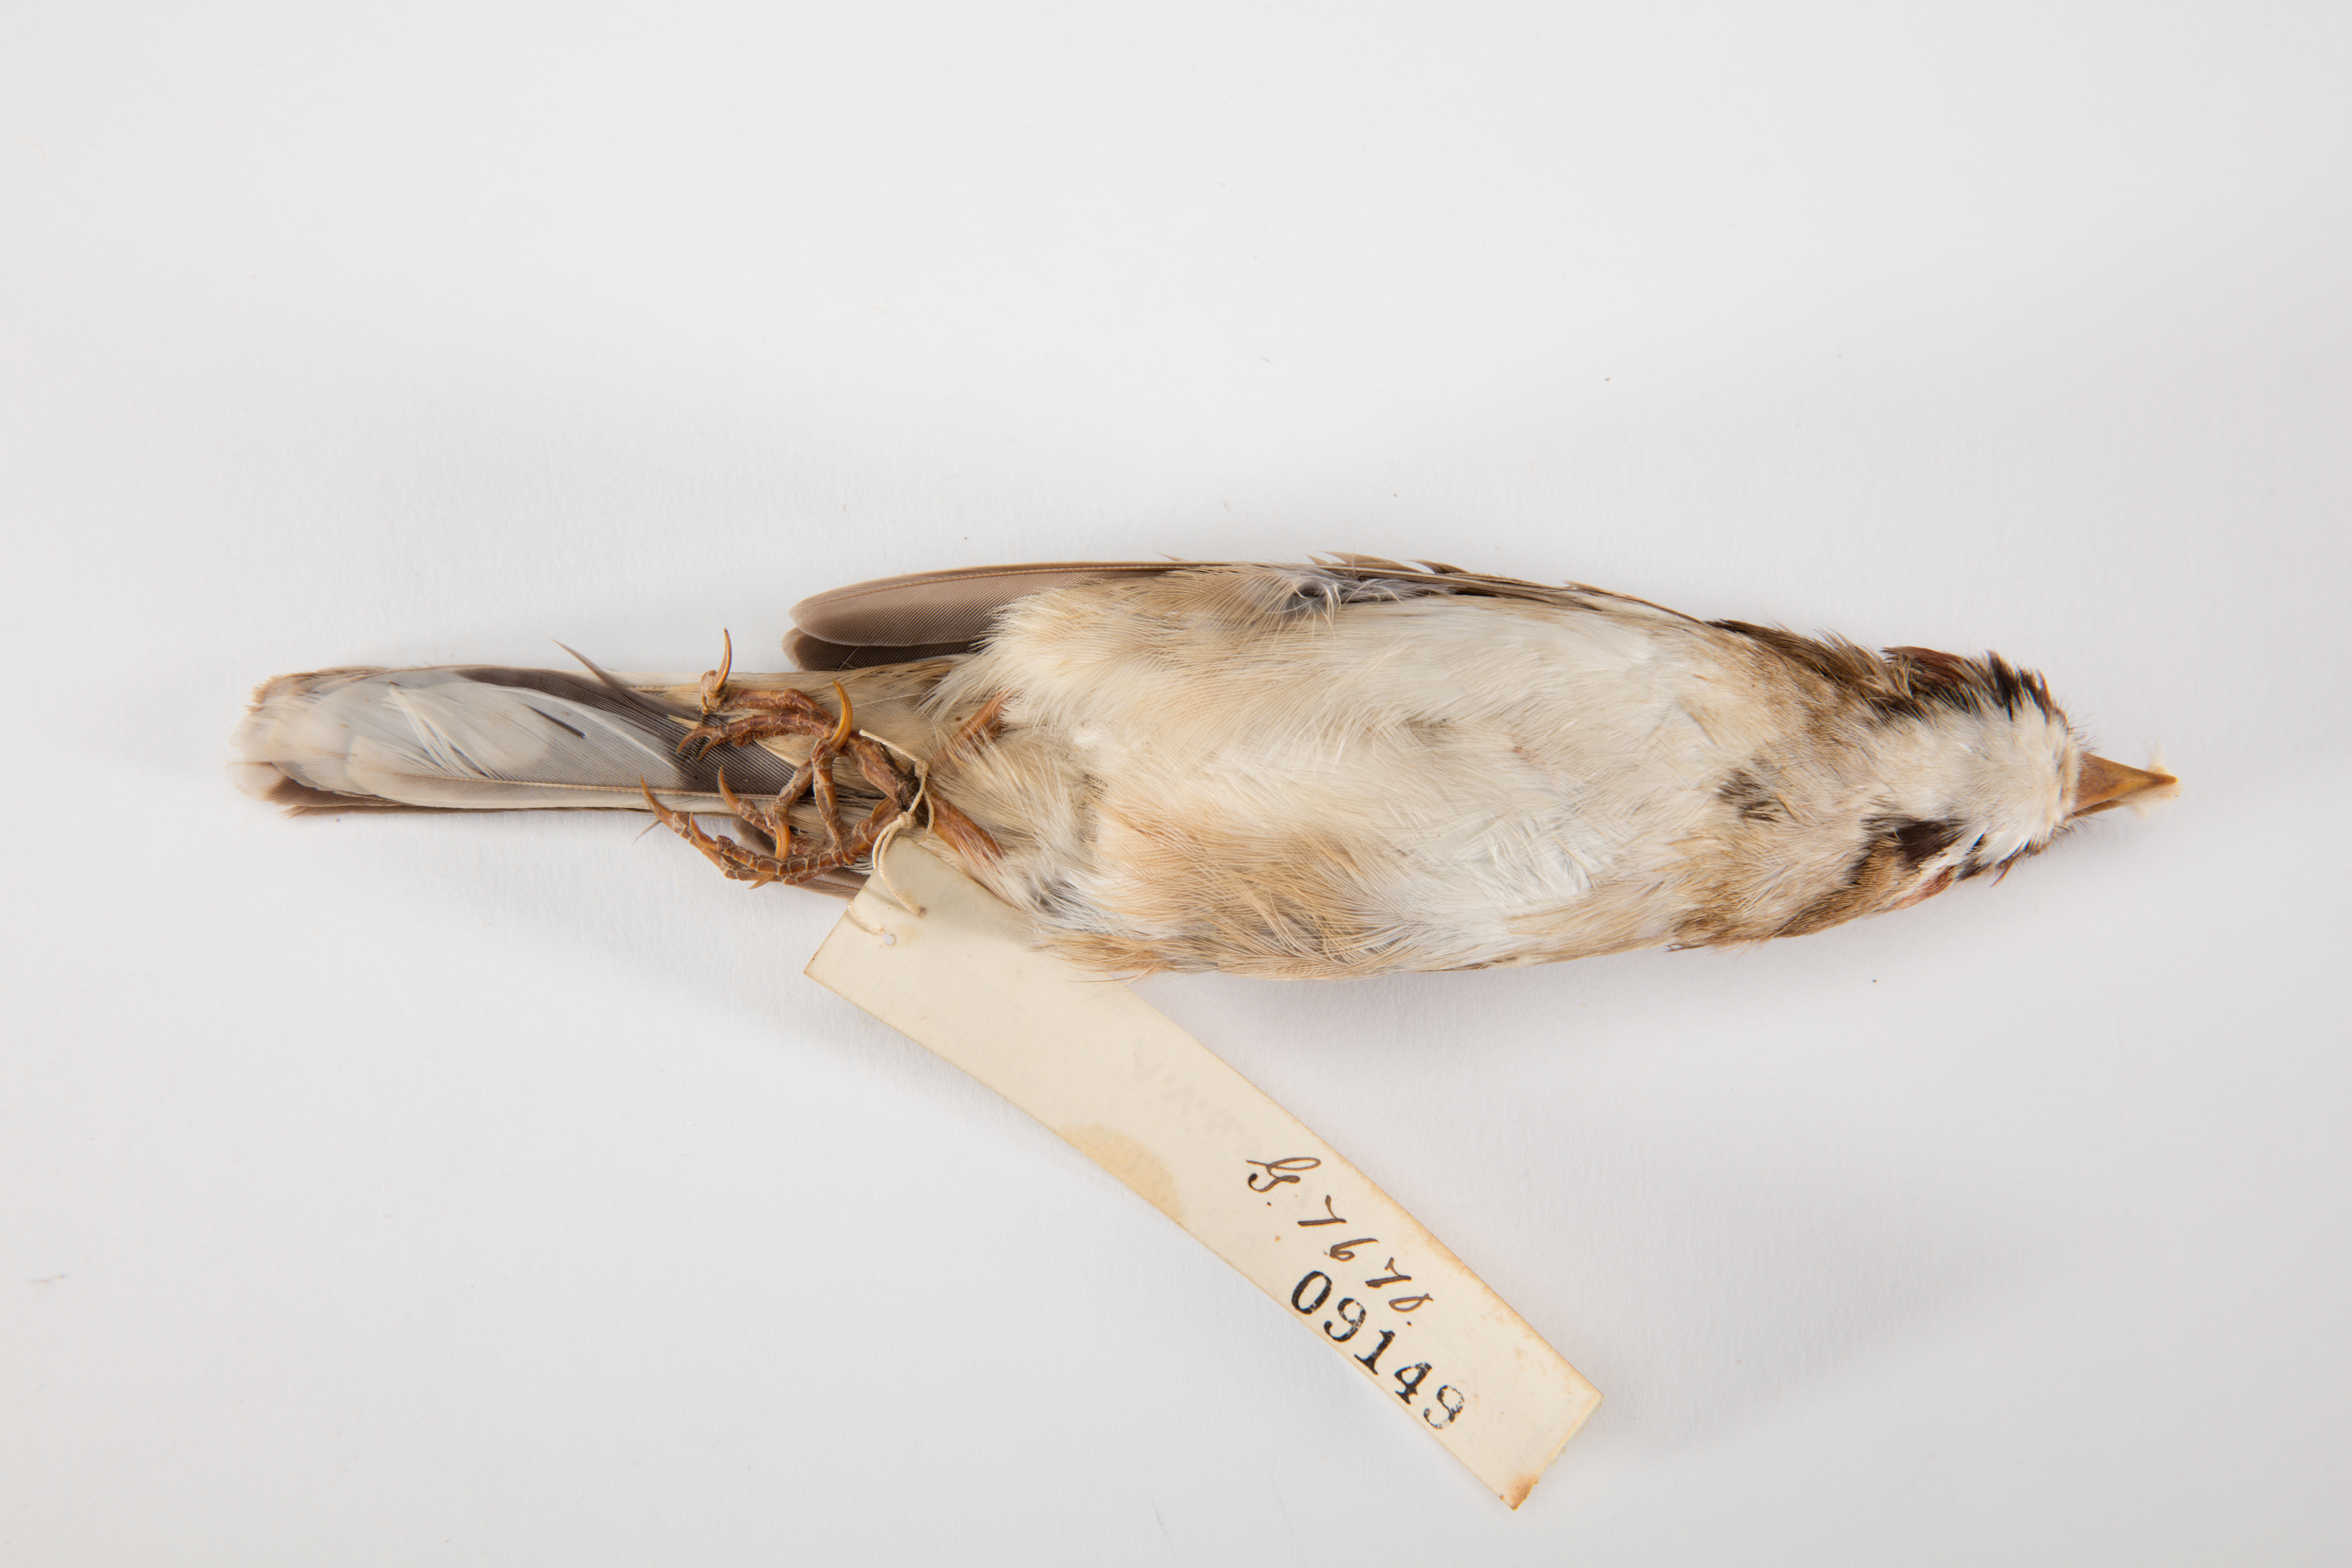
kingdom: Animalia
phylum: Chordata
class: Aves
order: Passeriformes
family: Passerellidae
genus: Chondestes
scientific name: Chondestes grammacus
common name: Lark sparrow
